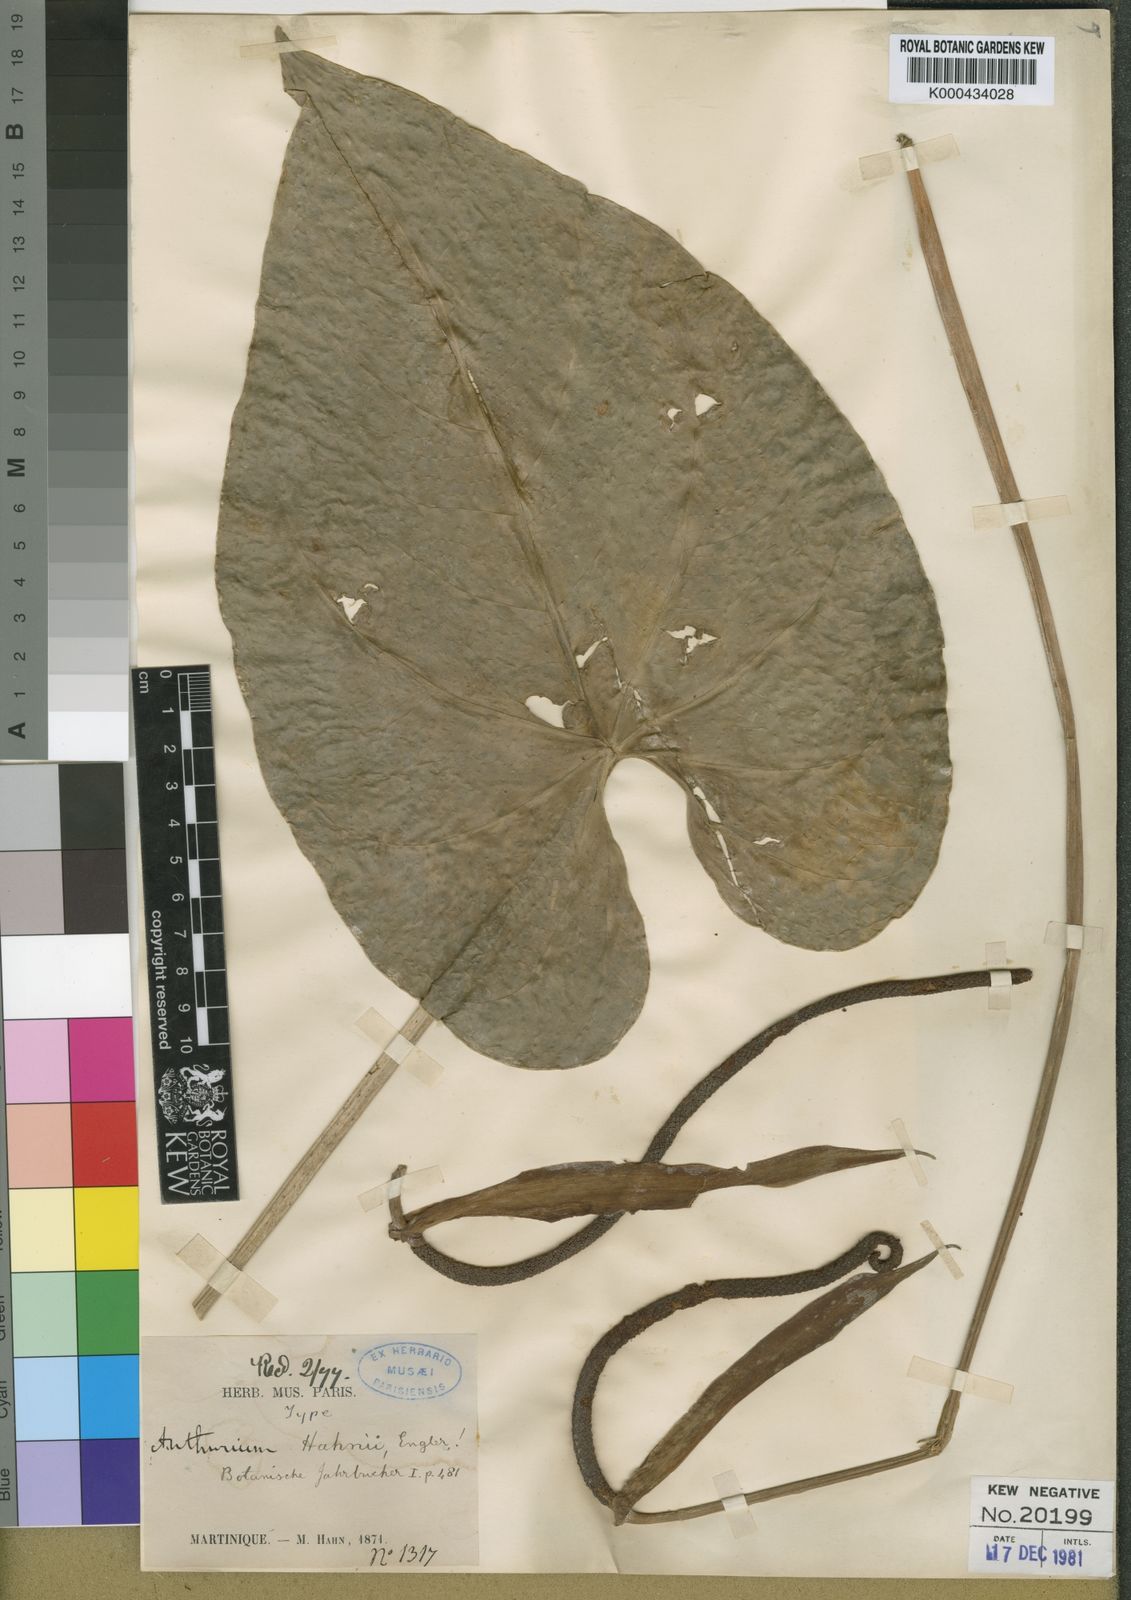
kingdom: Plantae
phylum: Tracheophyta
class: Liliopsida
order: Alismatales
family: Araceae
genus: Anthurium
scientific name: Anthurium grandifolium
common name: Monkey tail
